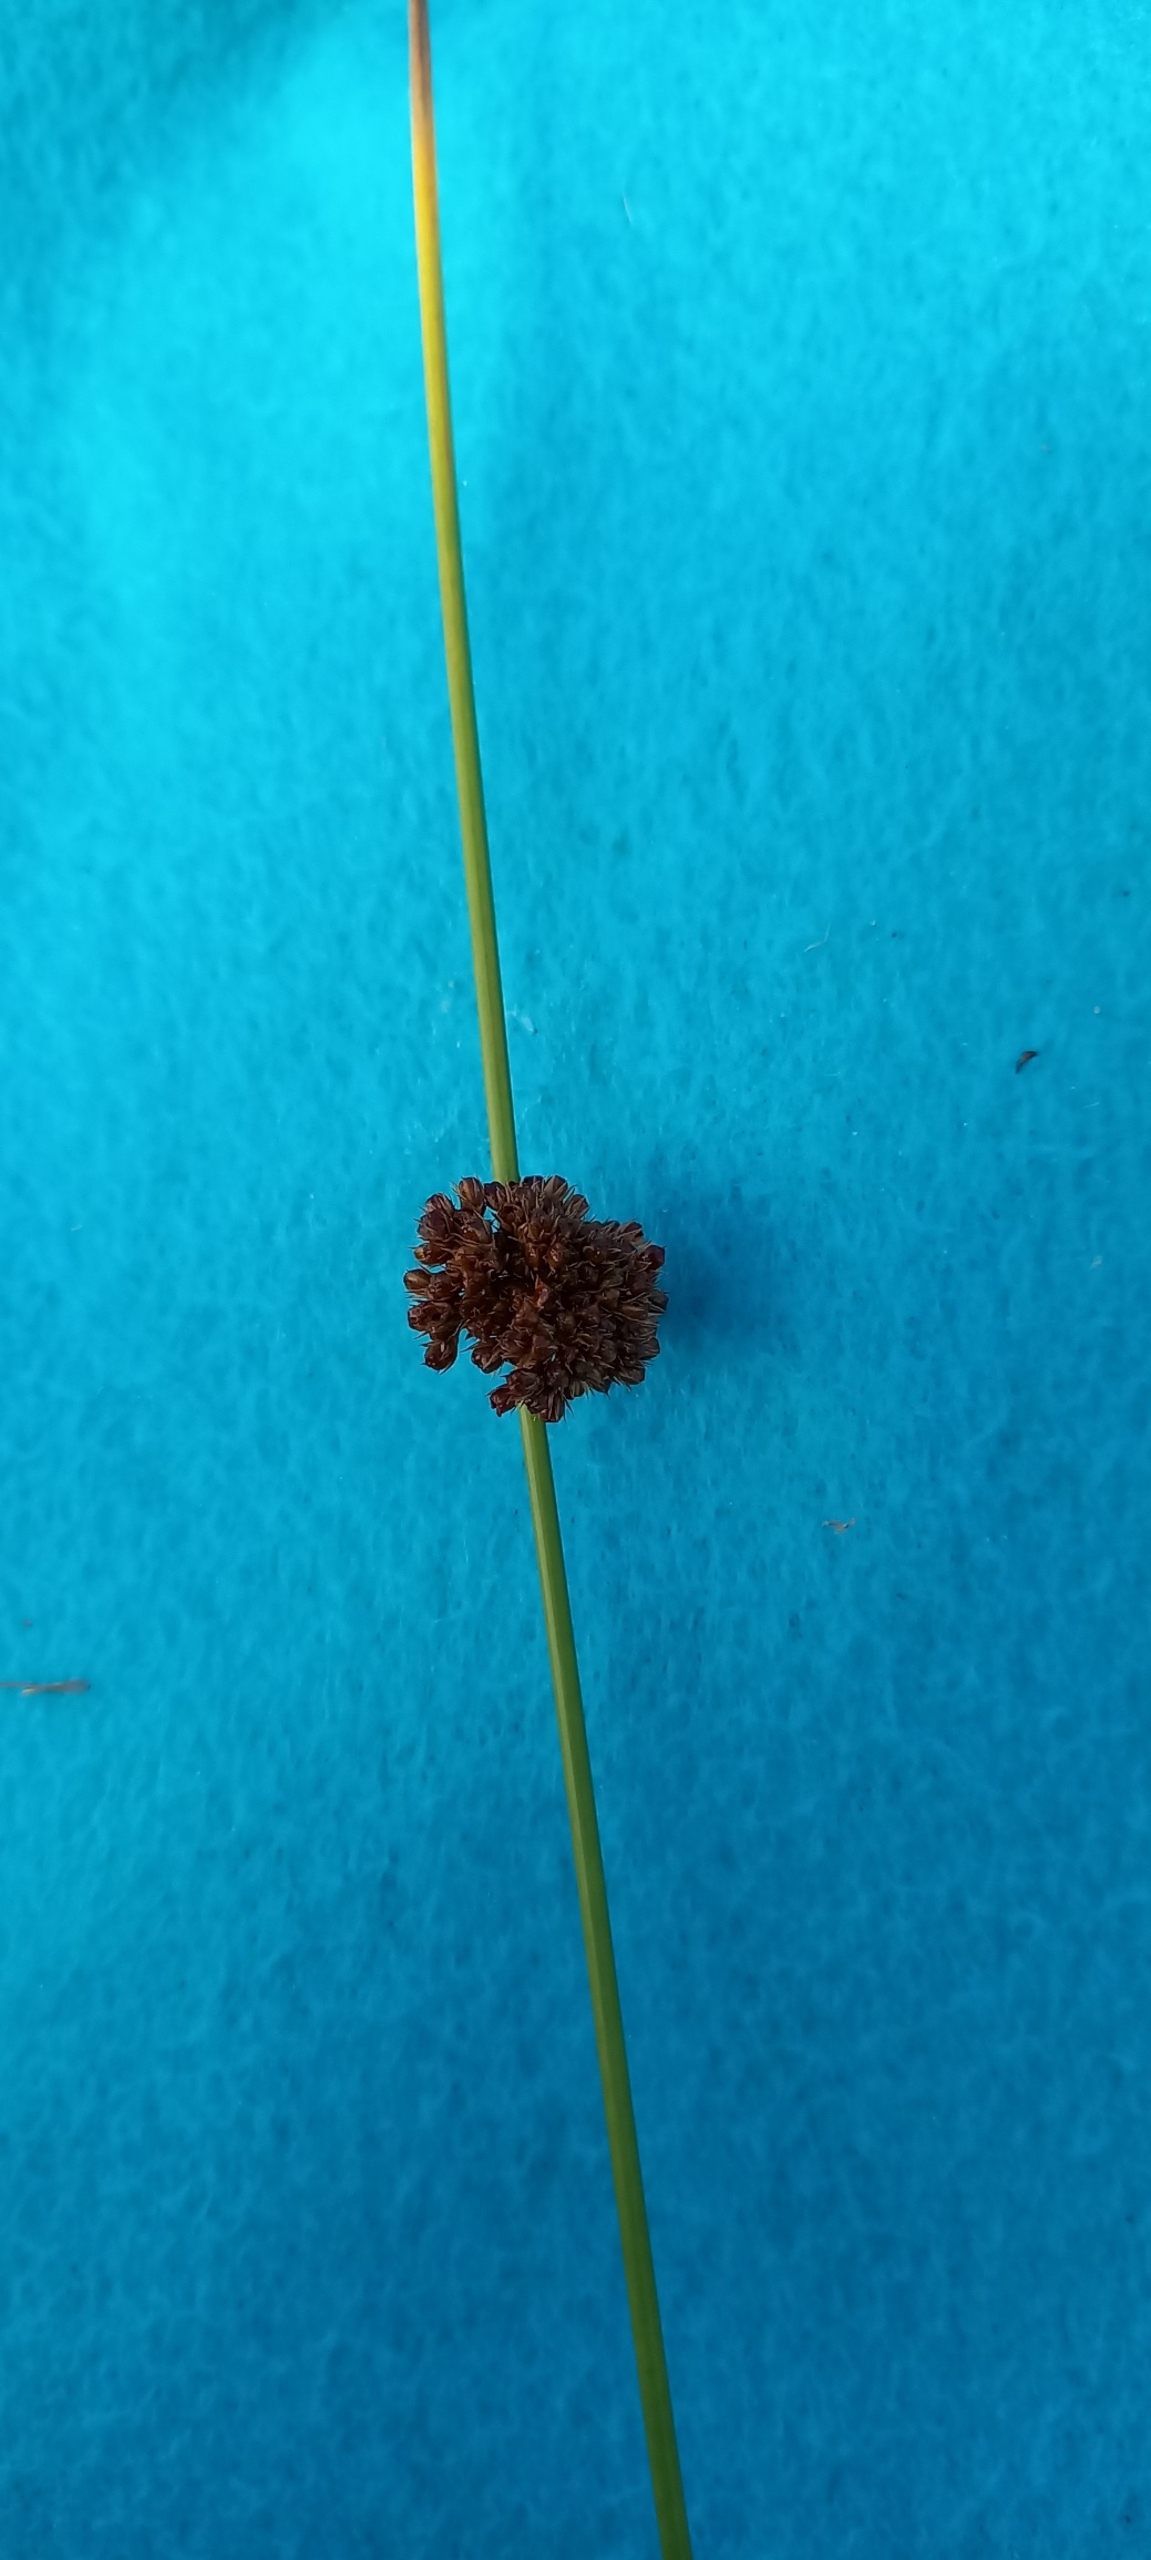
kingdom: Plantae
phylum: Tracheophyta
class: Liliopsida
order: Poales
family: Juncaceae
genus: Juncus
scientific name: Juncus effusus
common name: Lyse-siv
